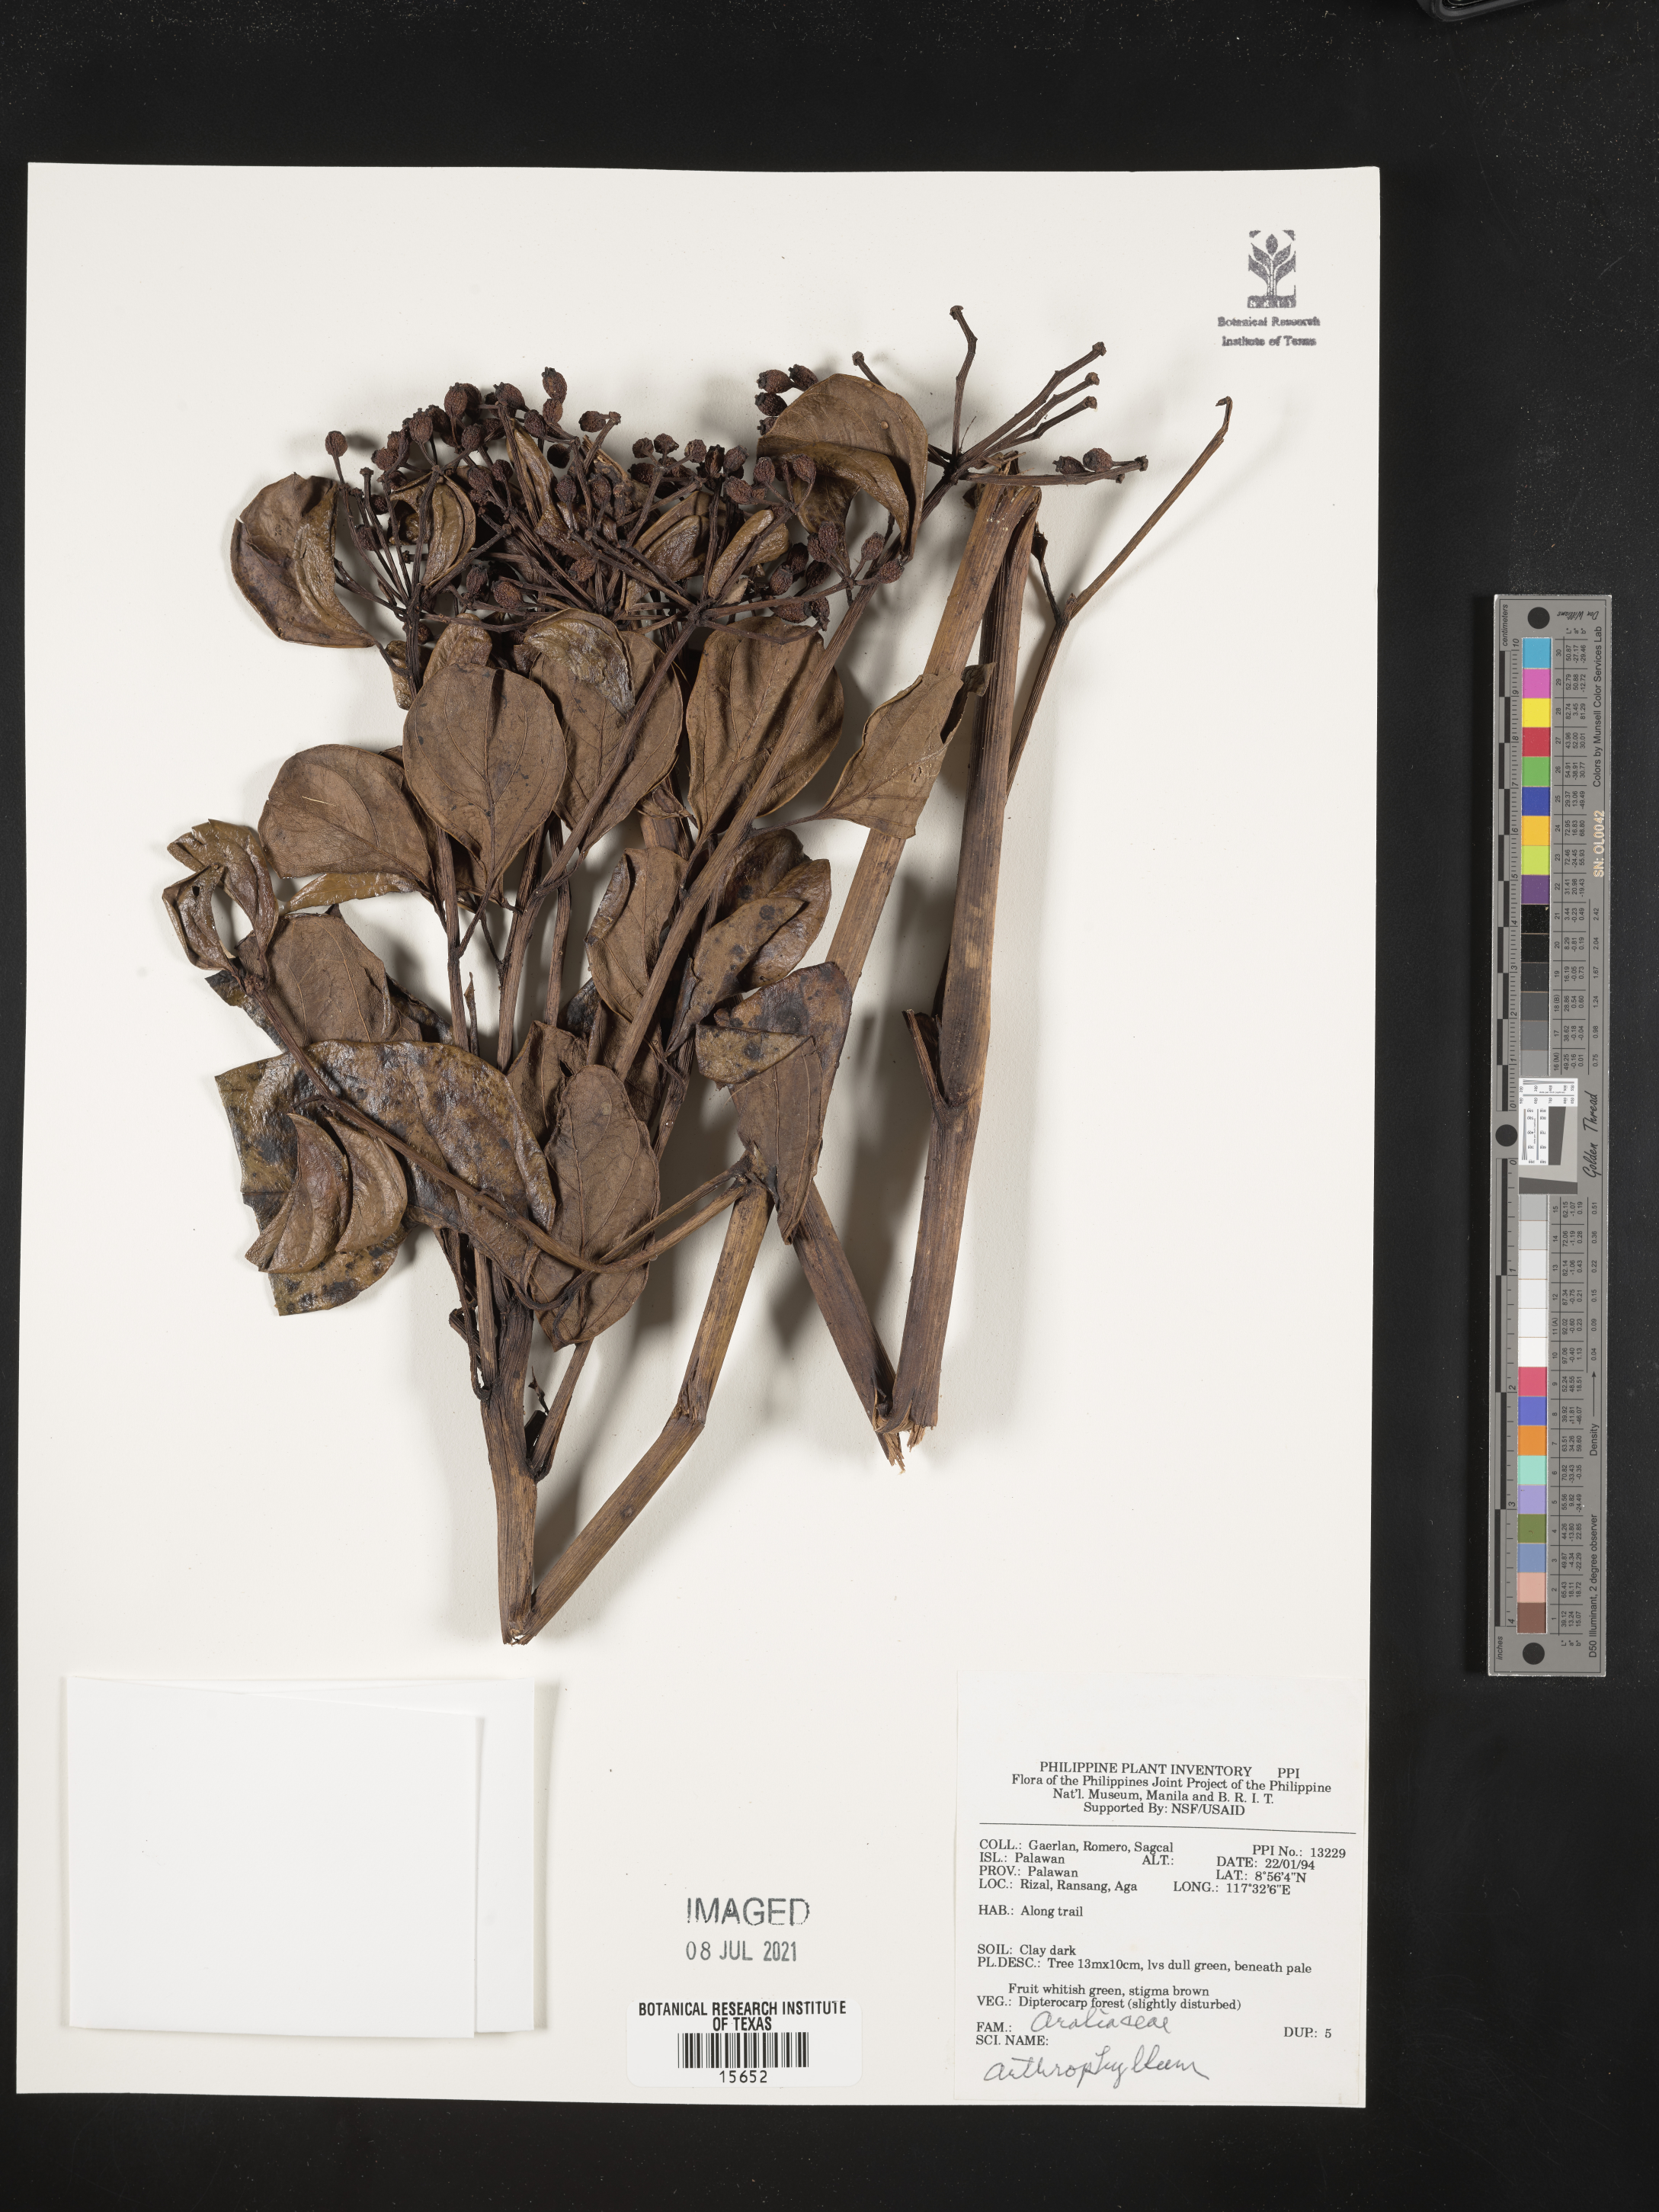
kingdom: Plantae
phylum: Tracheophyta
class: Magnoliopsida
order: Lamiales
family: Bignoniaceae
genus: Arthrophyllum
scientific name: Arthrophyllum
